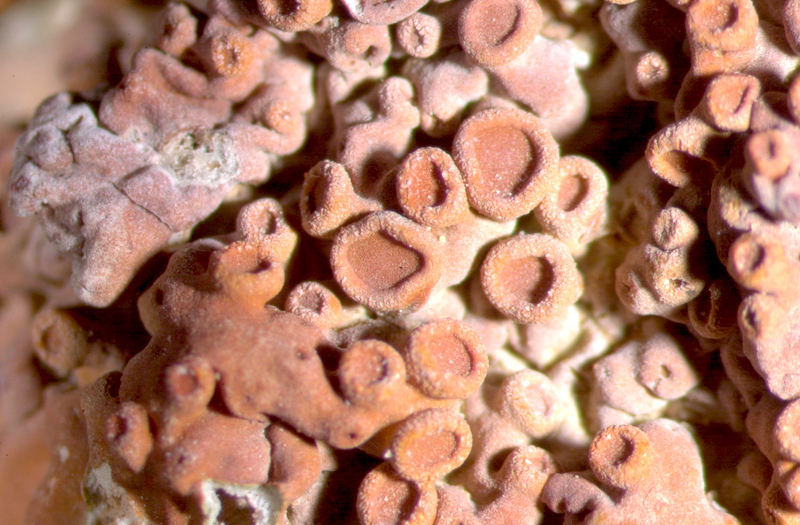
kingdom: Fungi
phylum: Ascomycota
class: Lecanoromycetes
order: Teloschistales
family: Teloschistaceae
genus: Dufourea
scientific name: Dufourea alexanderbaai
